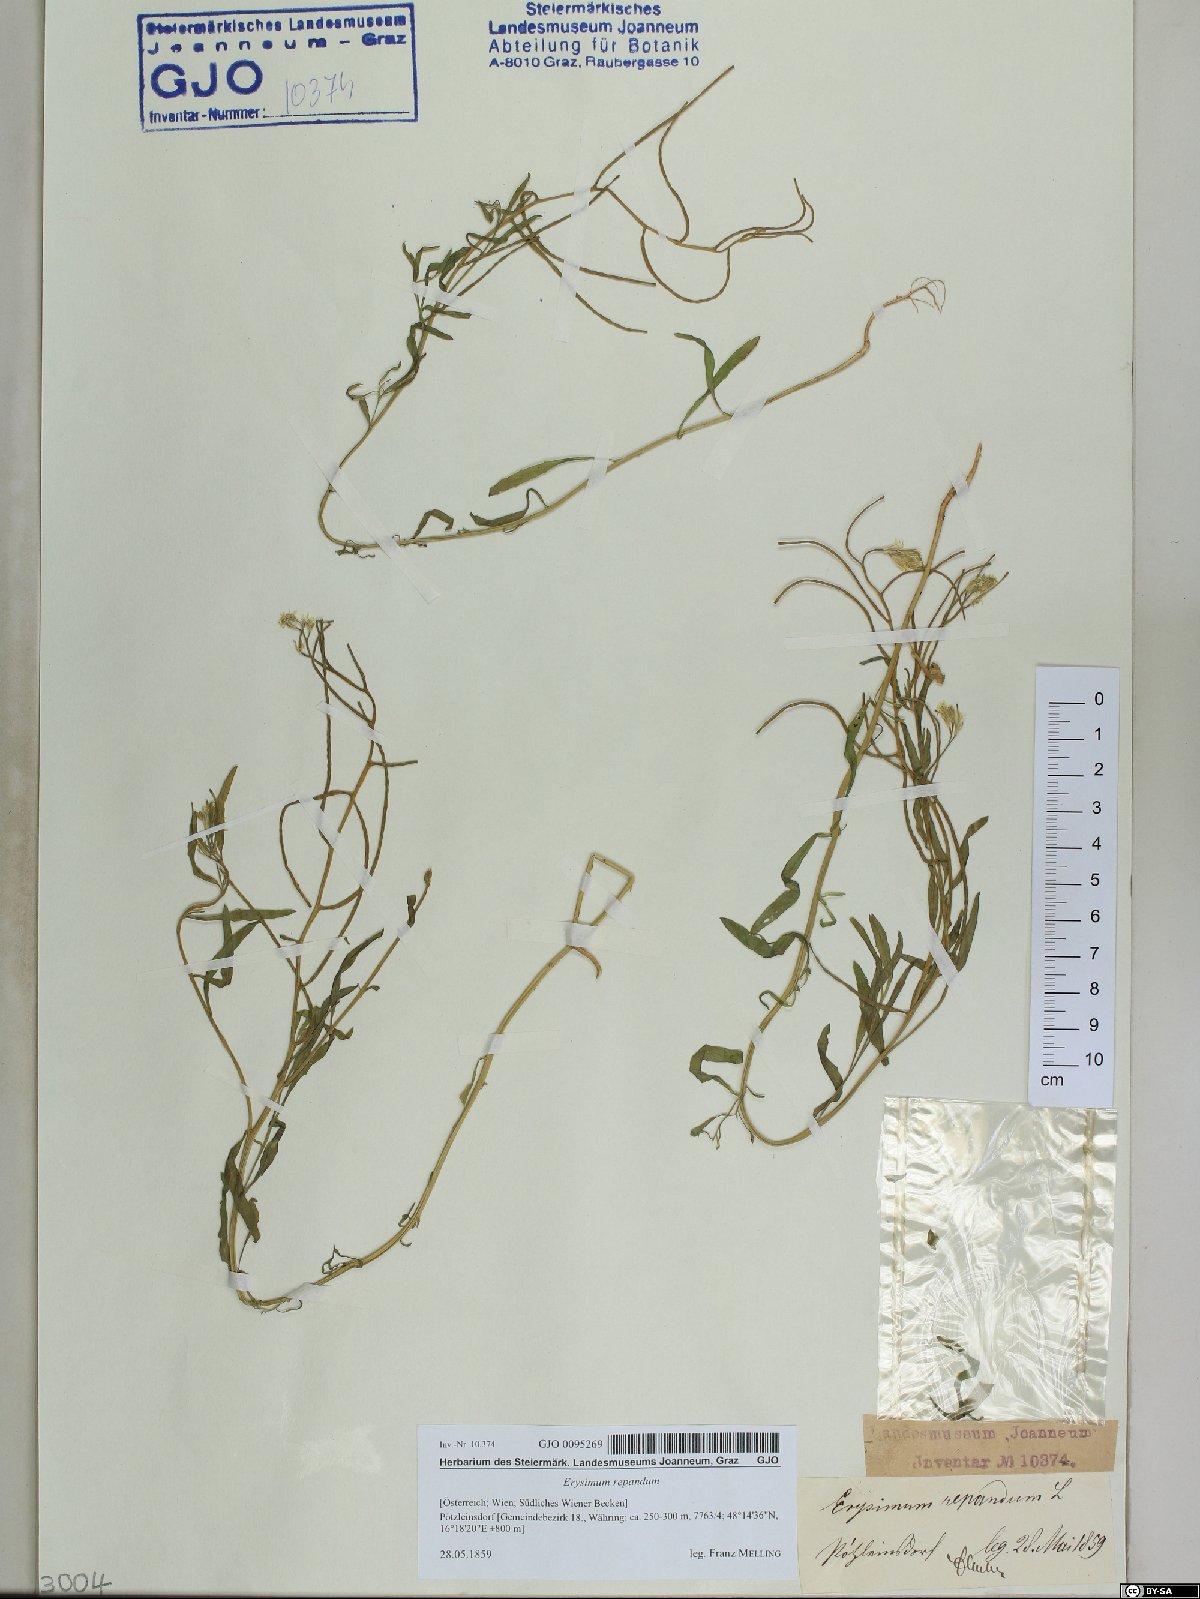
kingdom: Plantae
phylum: Tracheophyta
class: Magnoliopsida
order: Brassicales
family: Brassicaceae
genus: Erysimum
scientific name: Erysimum repandum
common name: Spreading wallflower
